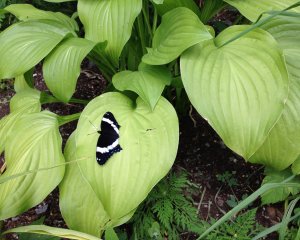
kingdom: Animalia
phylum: Arthropoda
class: Insecta
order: Lepidoptera
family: Nymphalidae
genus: Limenitis
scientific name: Limenitis arthemis
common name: Red-spotted Admiral
